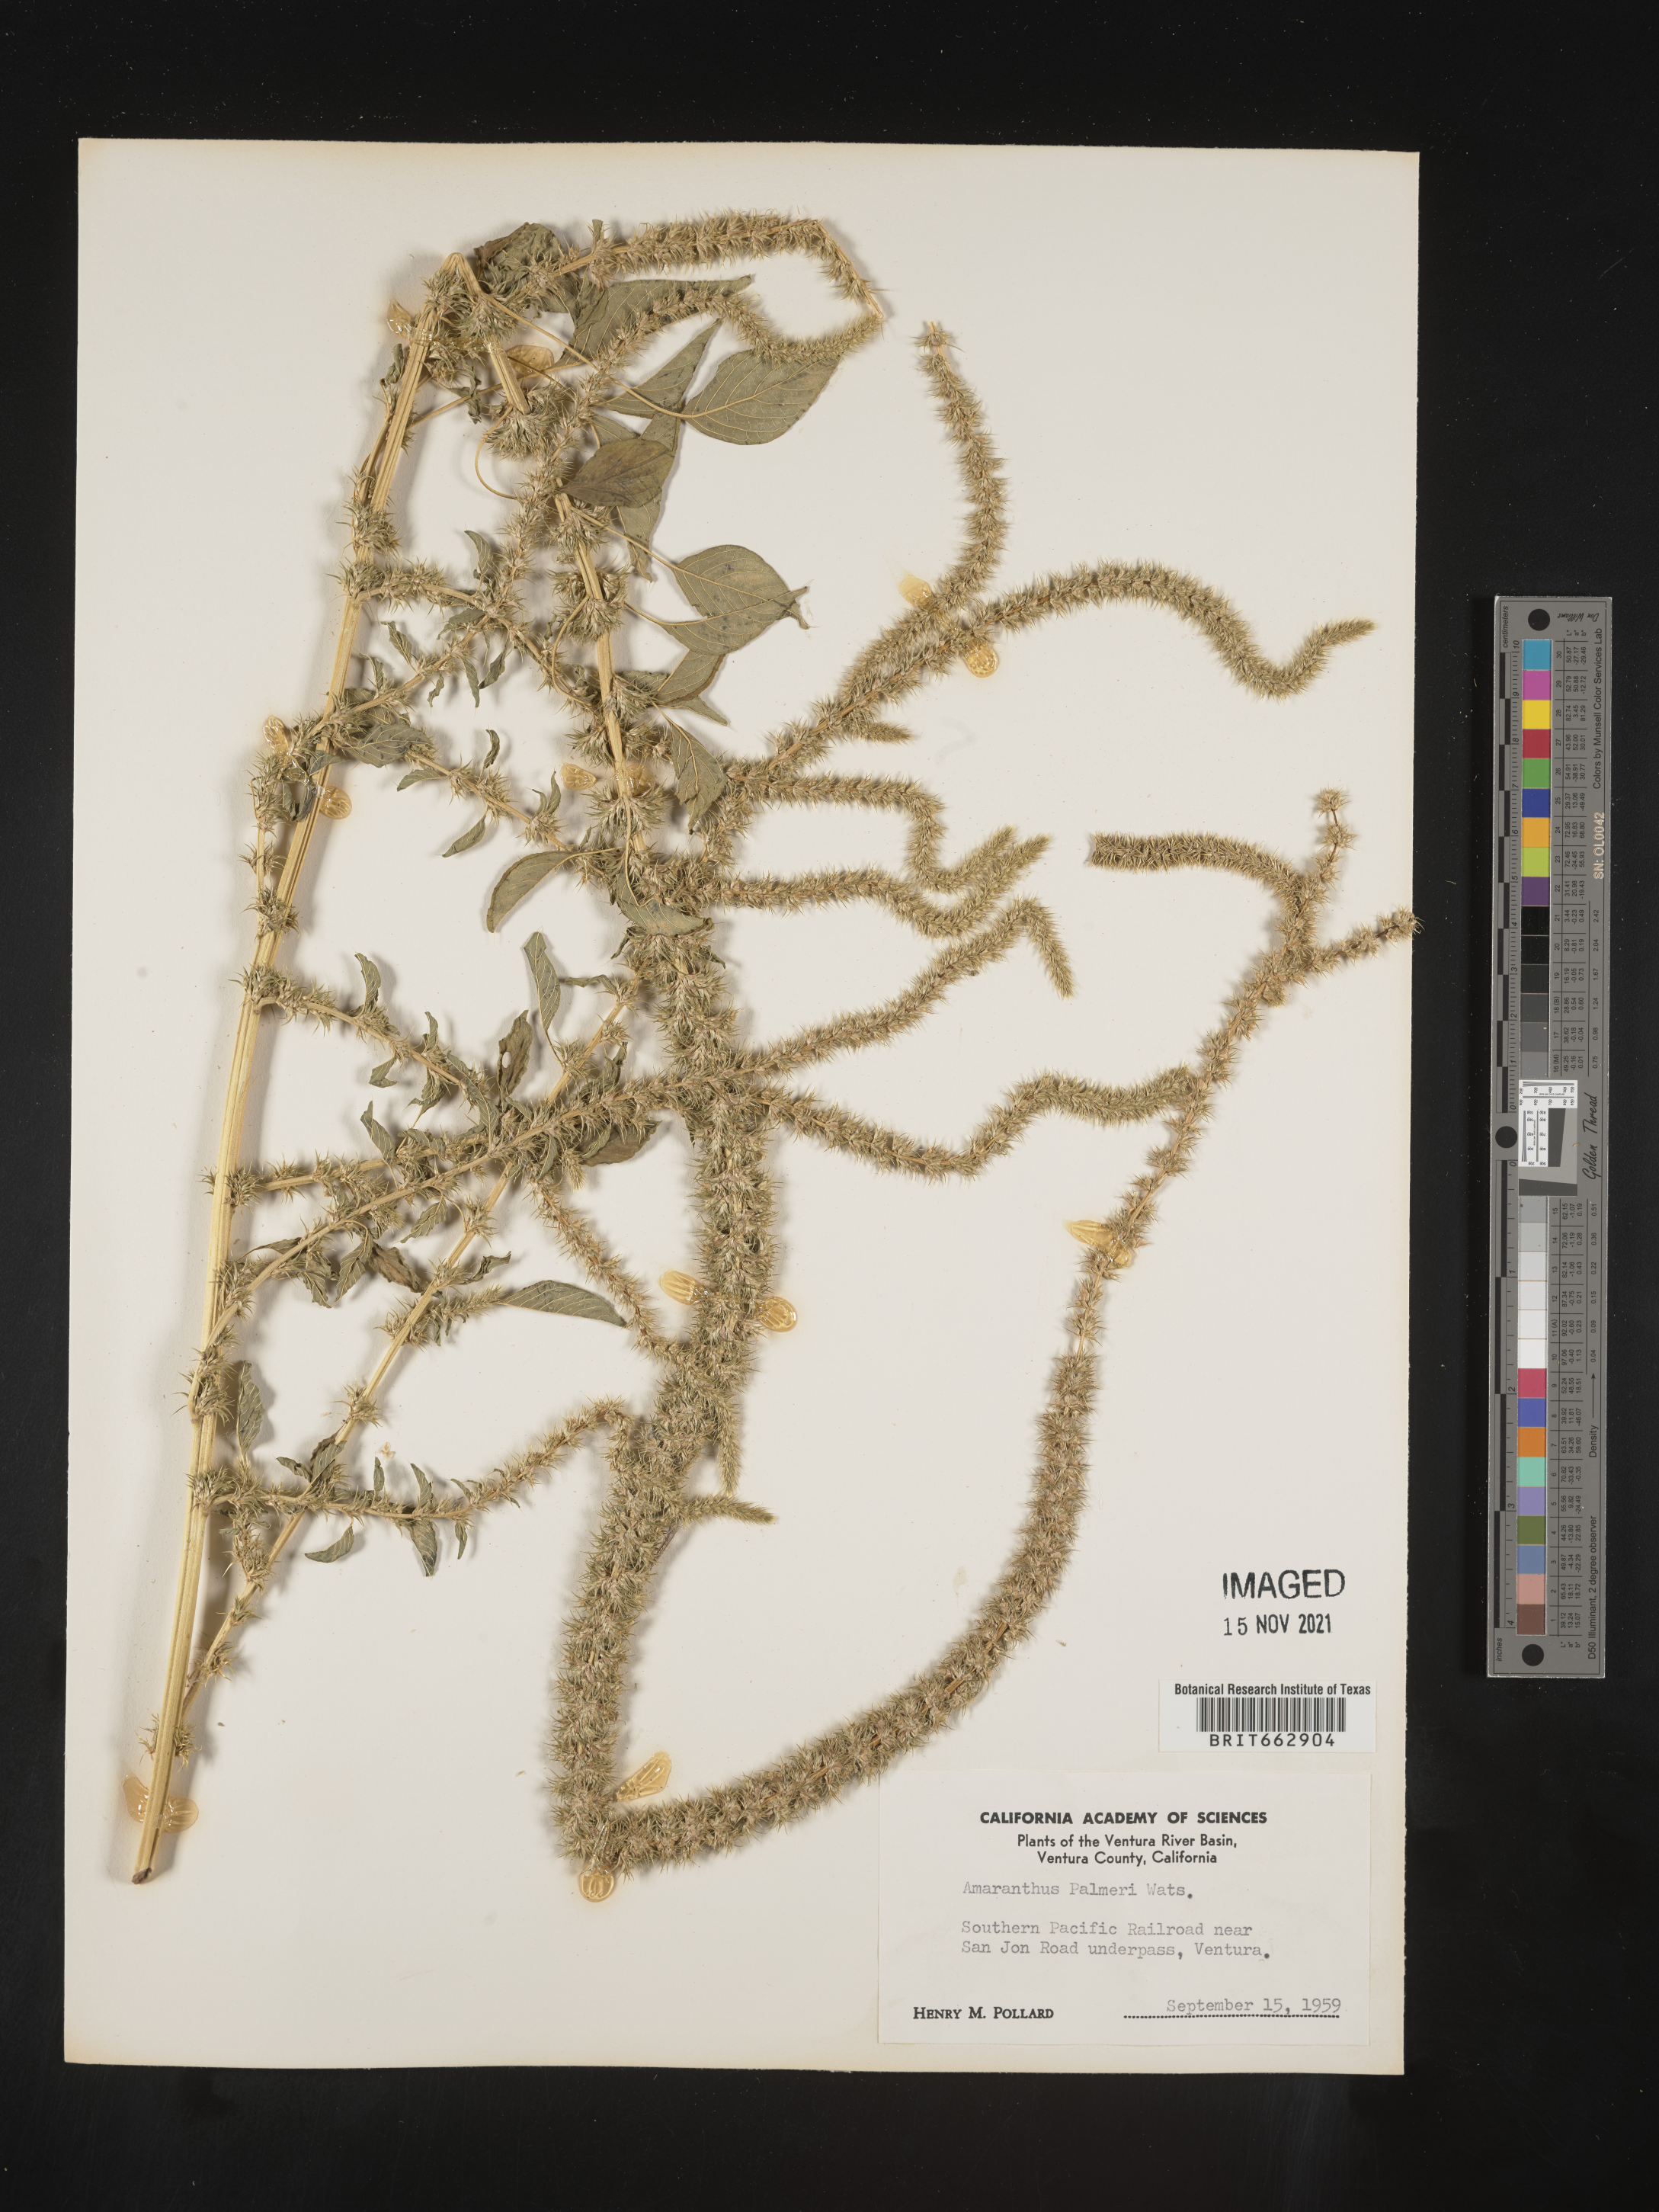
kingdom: Plantae
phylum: Tracheophyta
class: Magnoliopsida
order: Caryophyllales
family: Amaranthaceae
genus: Amaranthus
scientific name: Amaranthus palmeri
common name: Dioecious amaranth
